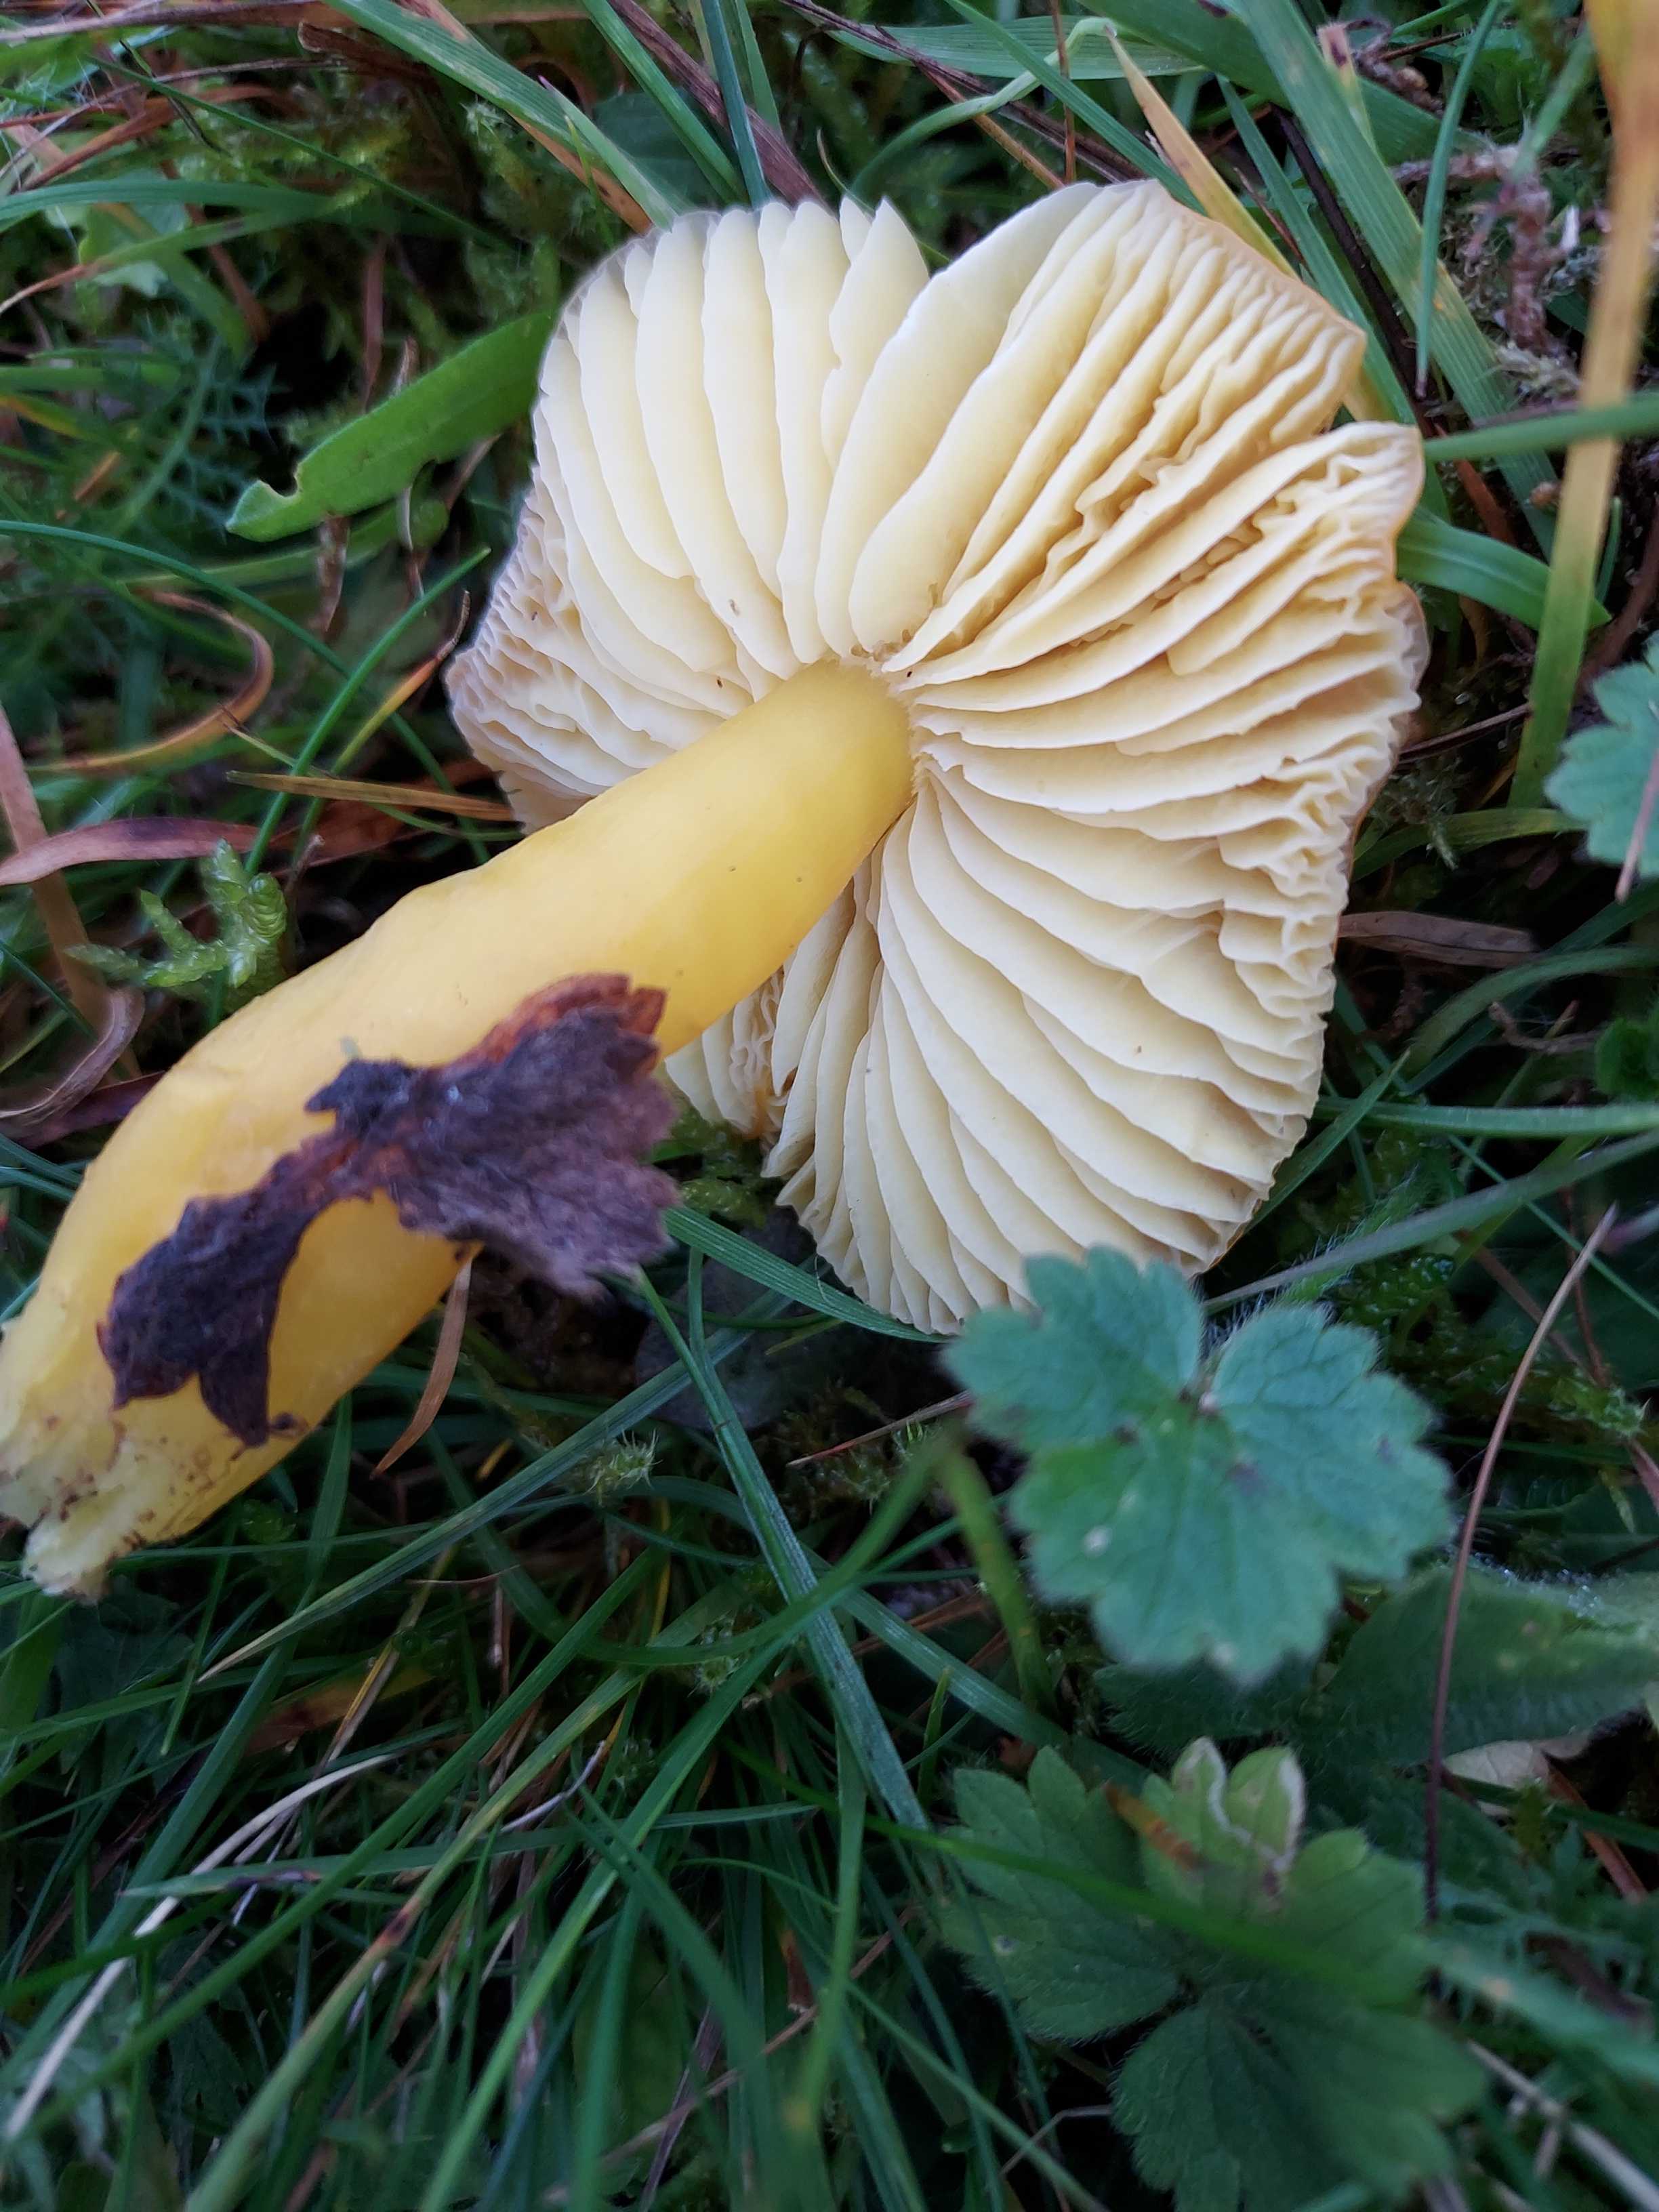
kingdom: Fungi
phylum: Basidiomycota
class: Agaricomycetes
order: Agaricales
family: Hygrophoraceae
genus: Hygrocybe
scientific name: Hygrocybe chlorophana
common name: gul vokshat
